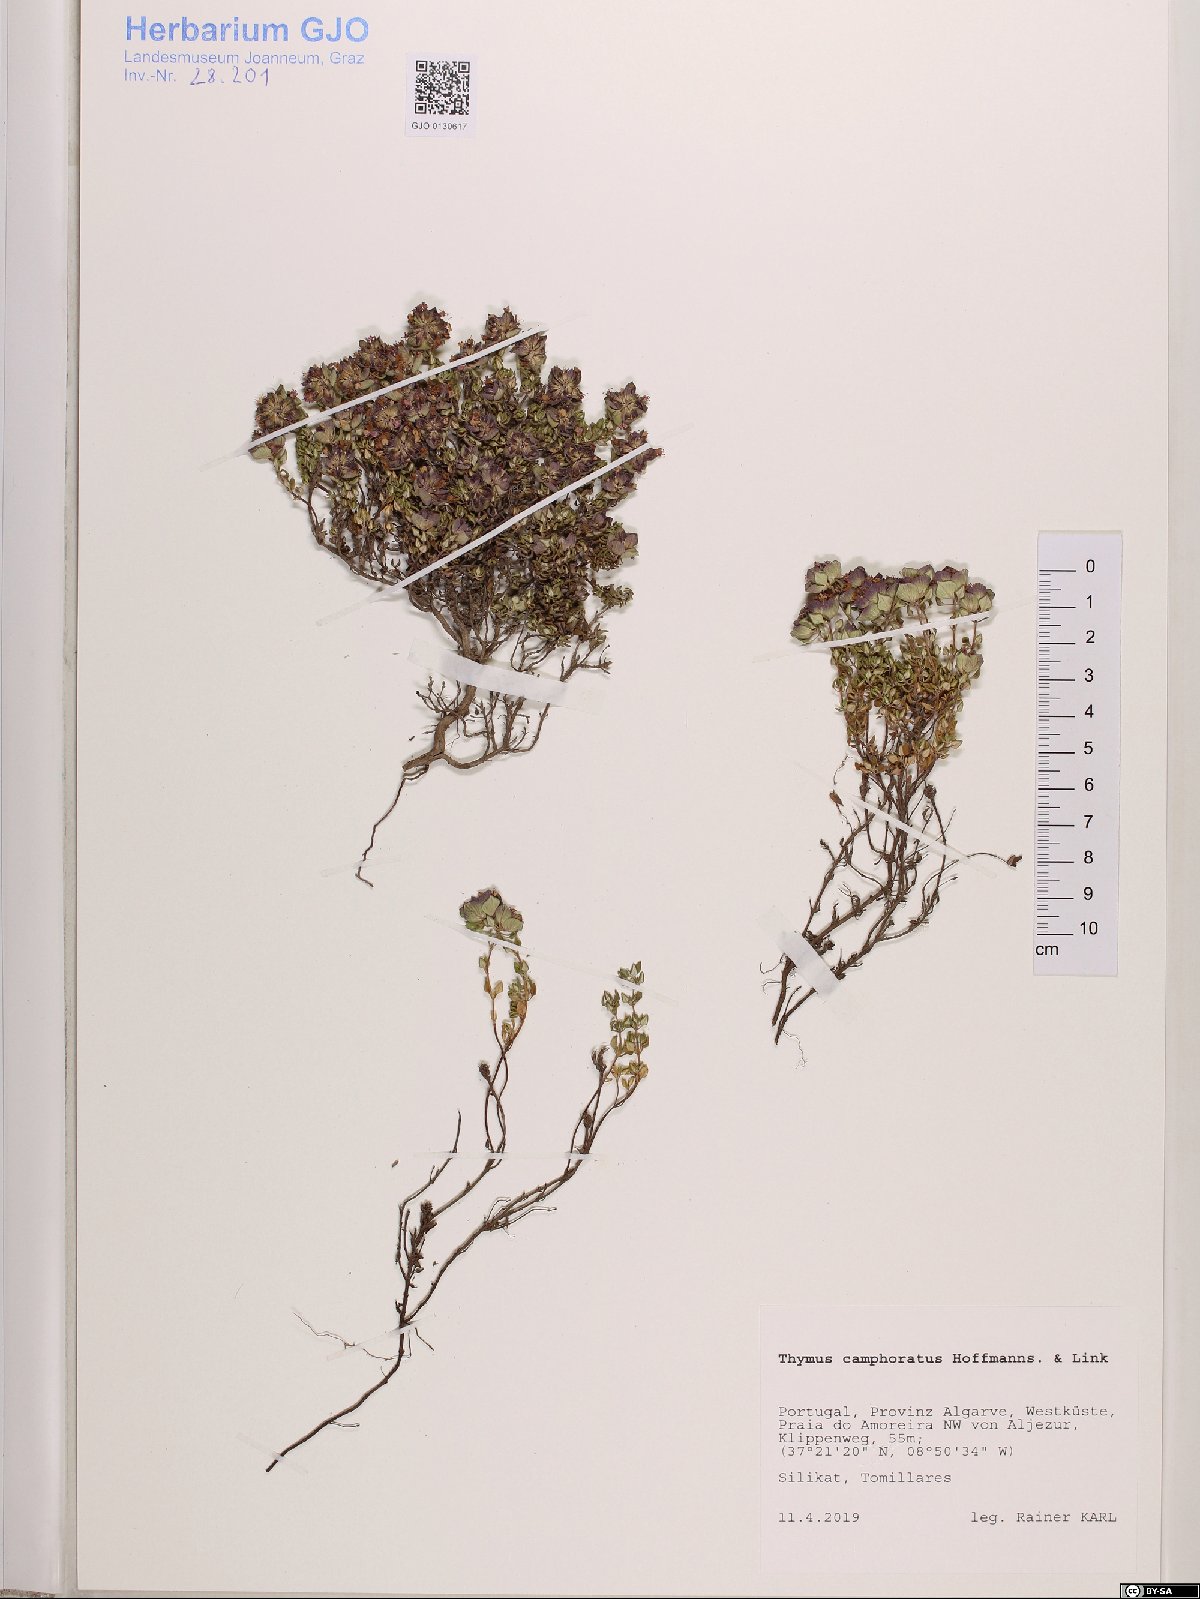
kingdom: Plantae
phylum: Tracheophyta
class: Magnoliopsida
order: Lamiales
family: Lamiaceae
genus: Thymus
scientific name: Thymus camphoratus
